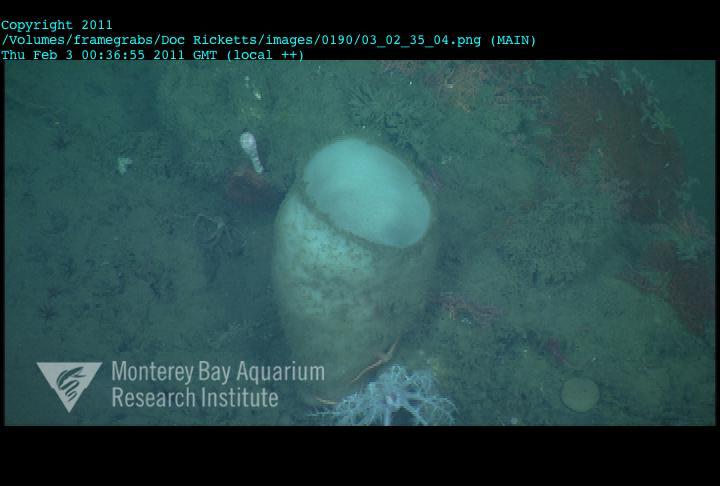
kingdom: Animalia
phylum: Porifera
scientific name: Porifera
